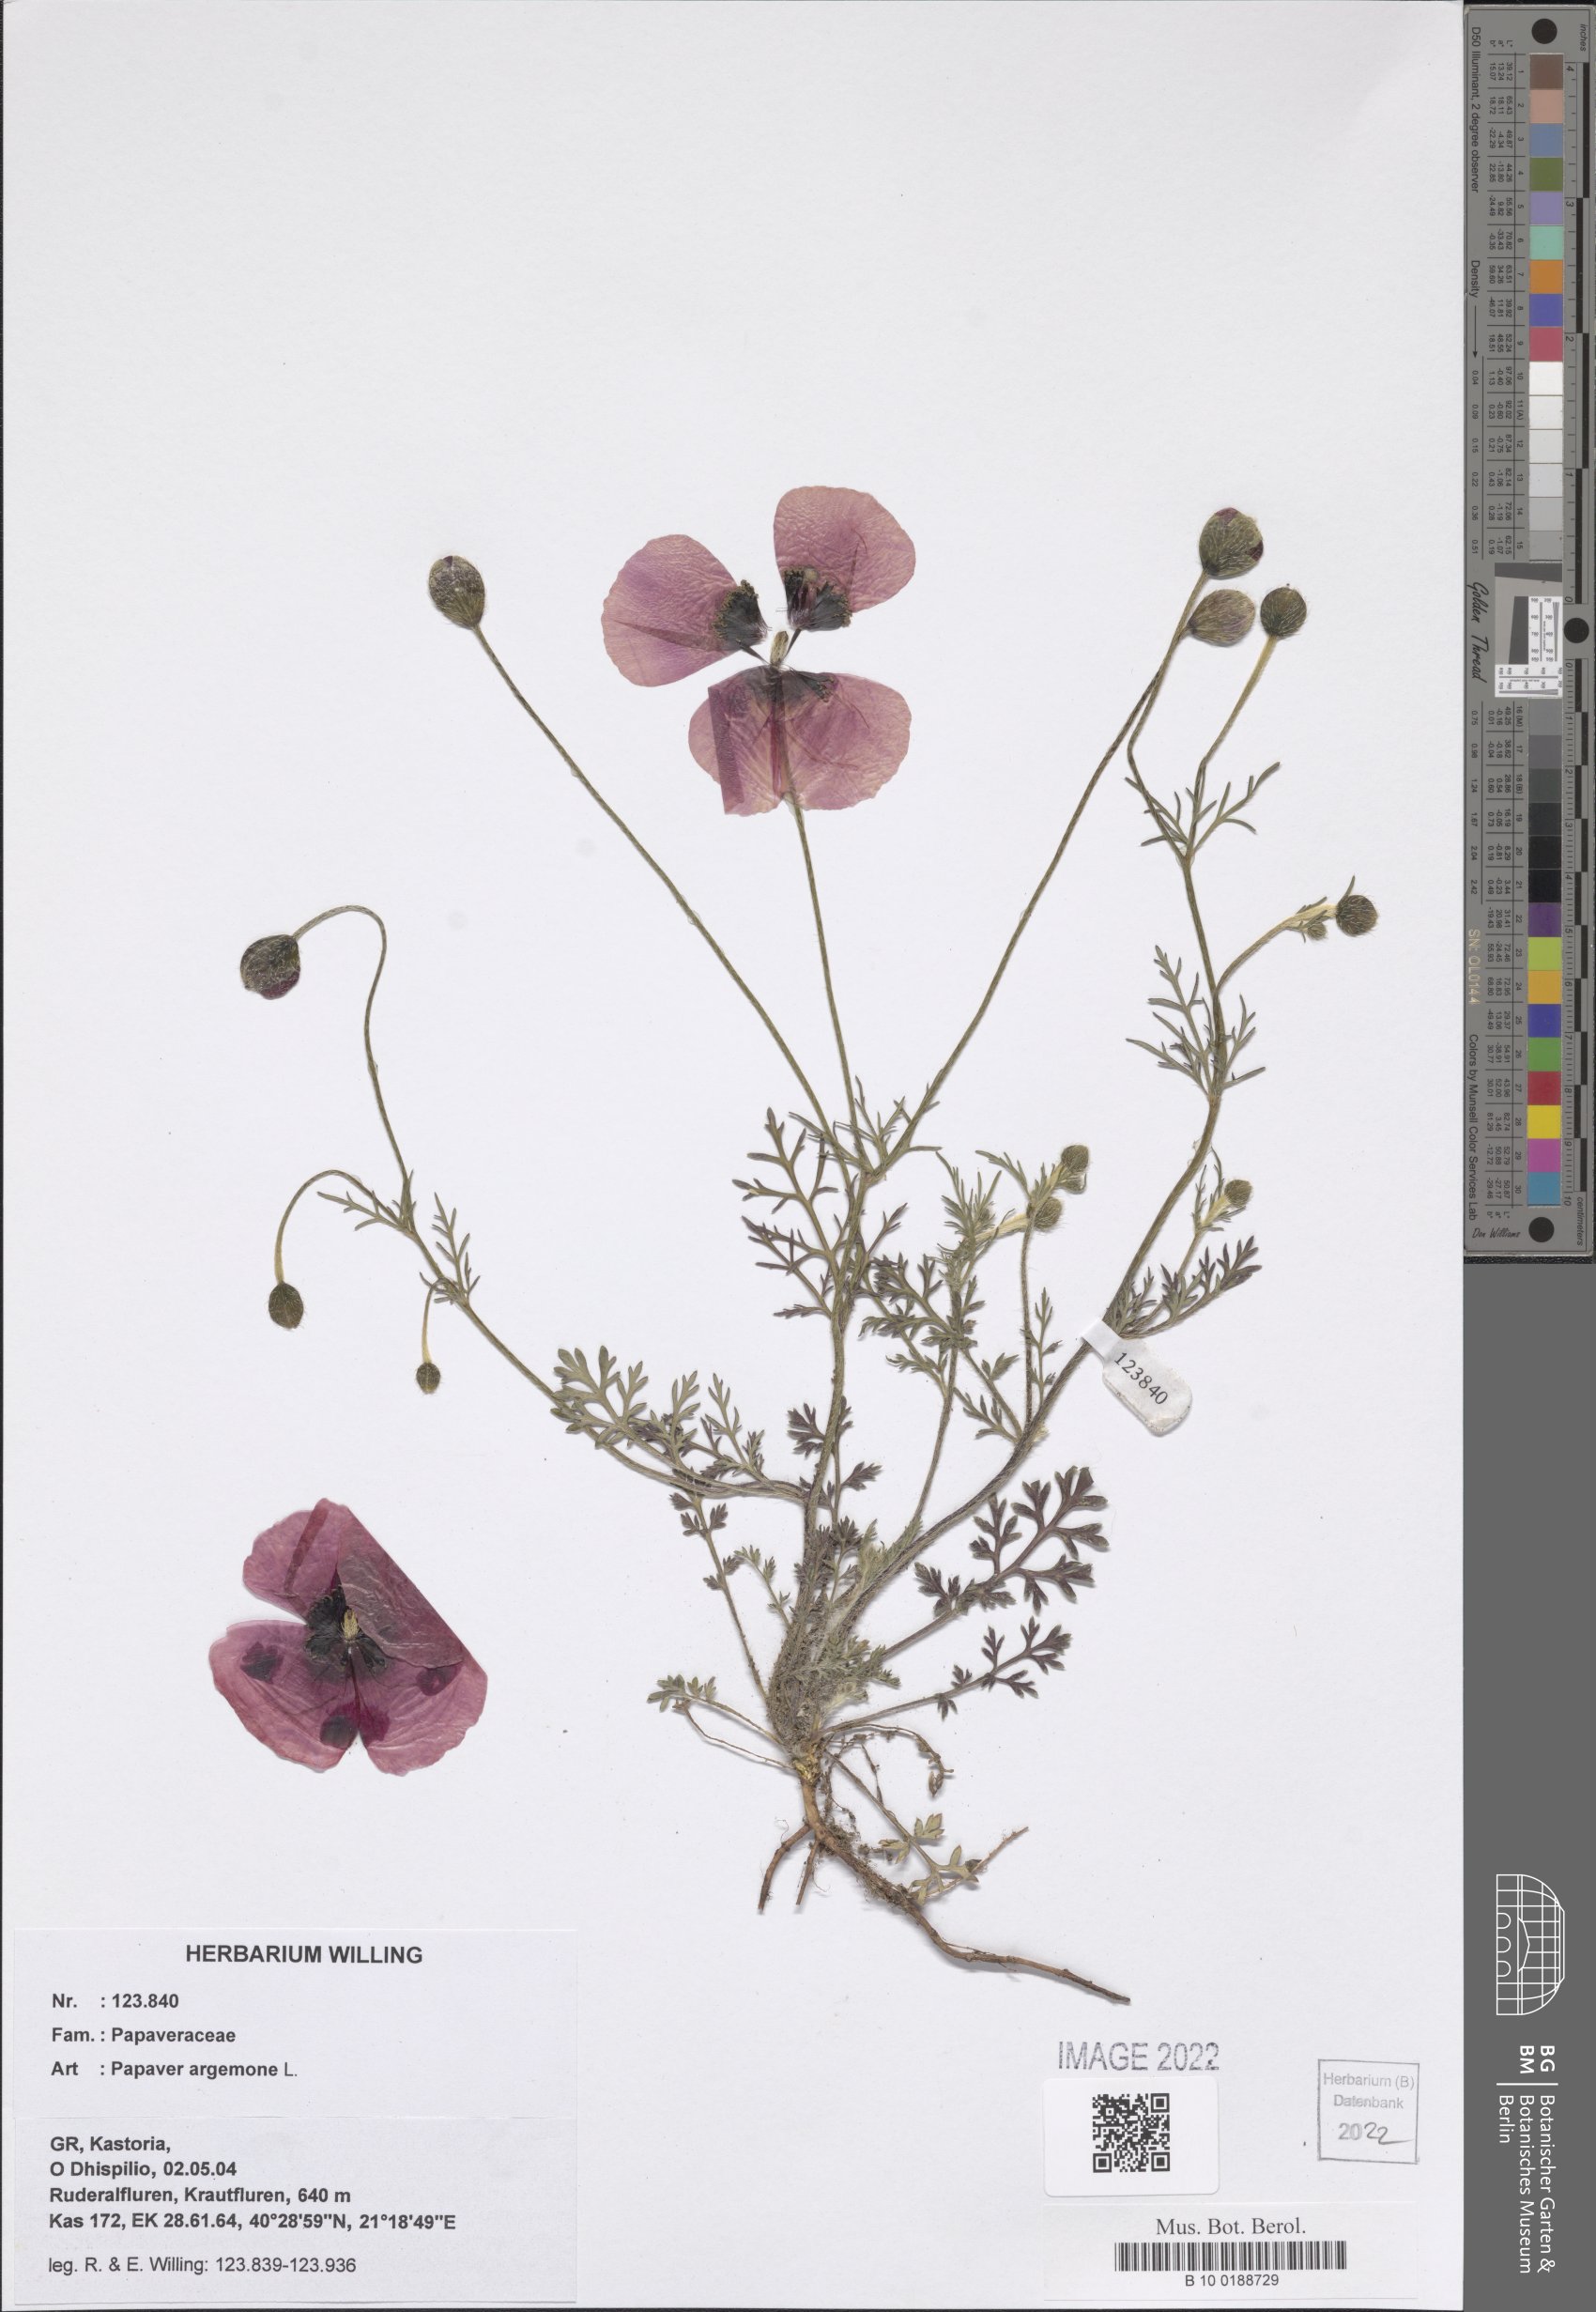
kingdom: Plantae
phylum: Tracheophyta
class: Magnoliopsida
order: Ranunculales
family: Papaveraceae
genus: Roemeria
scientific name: Roemeria argemone
